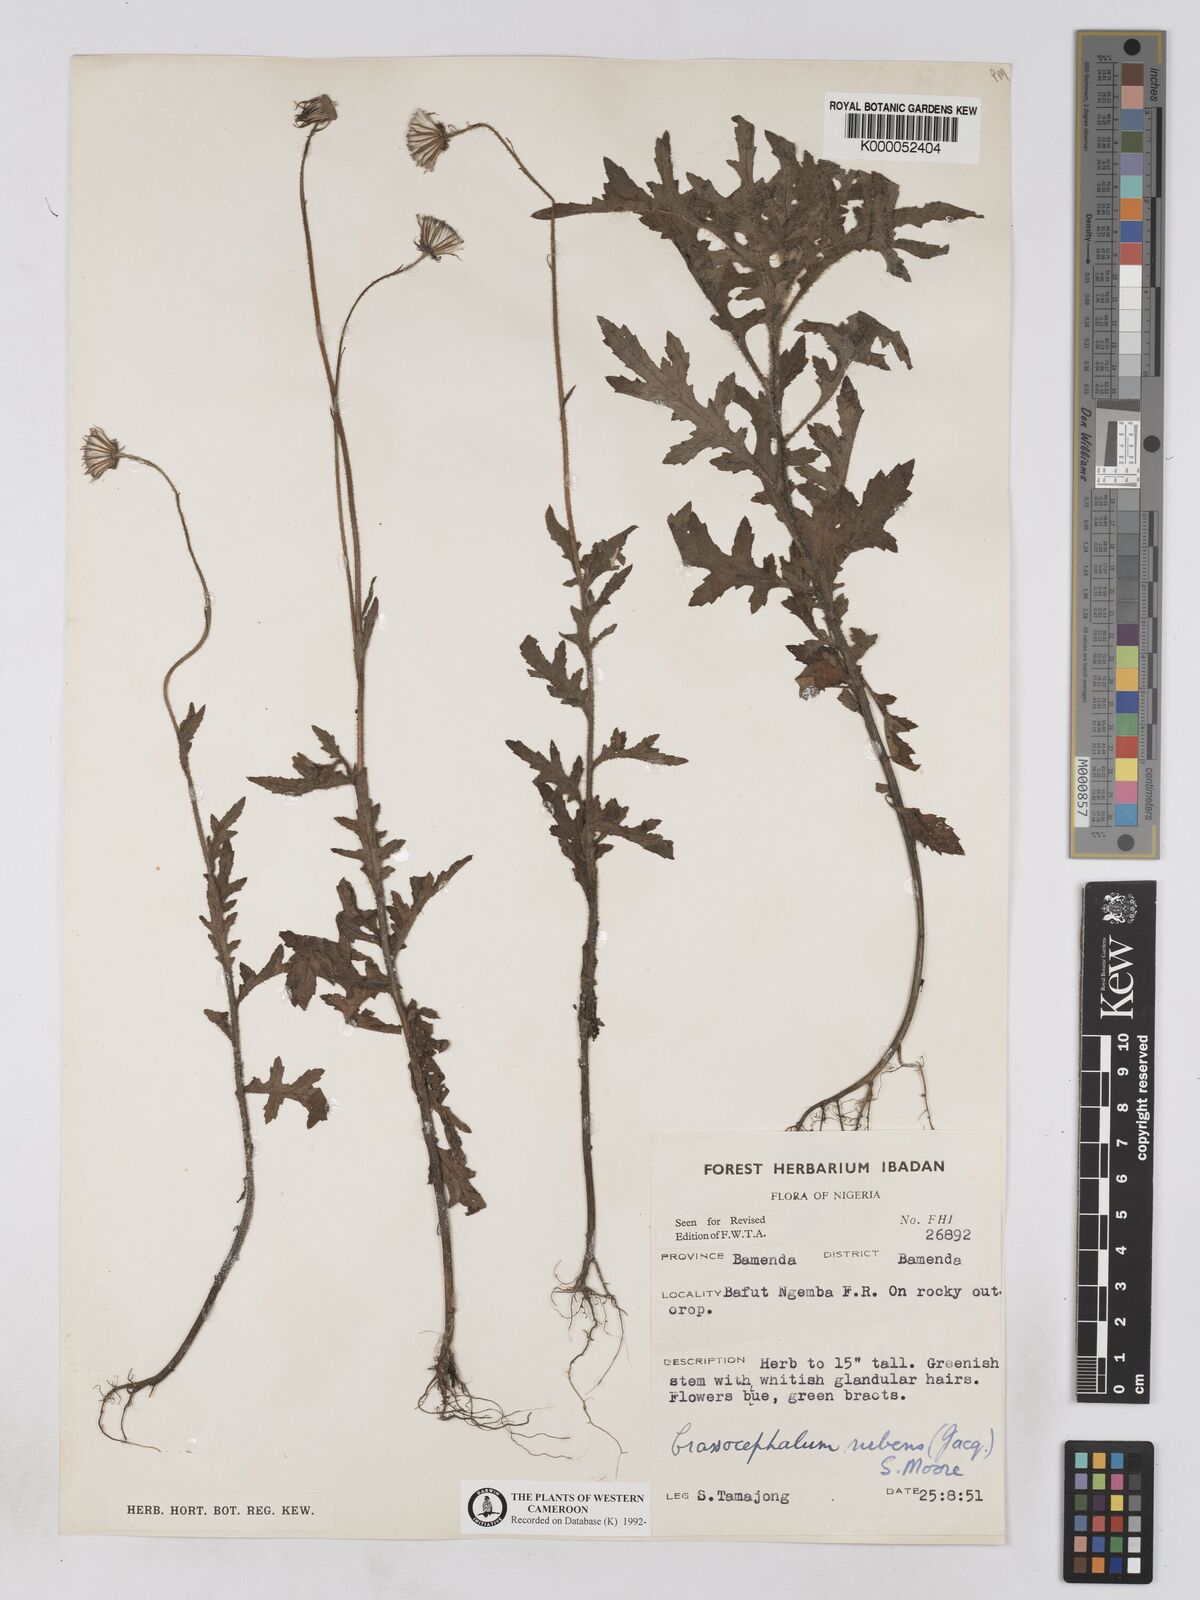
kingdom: Plantae
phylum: Tracheophyta
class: Magnoliopsida
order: Asterales
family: Asteraceae
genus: Crassocephalum
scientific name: Crassocephalum rubens
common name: Yoruban bologi
